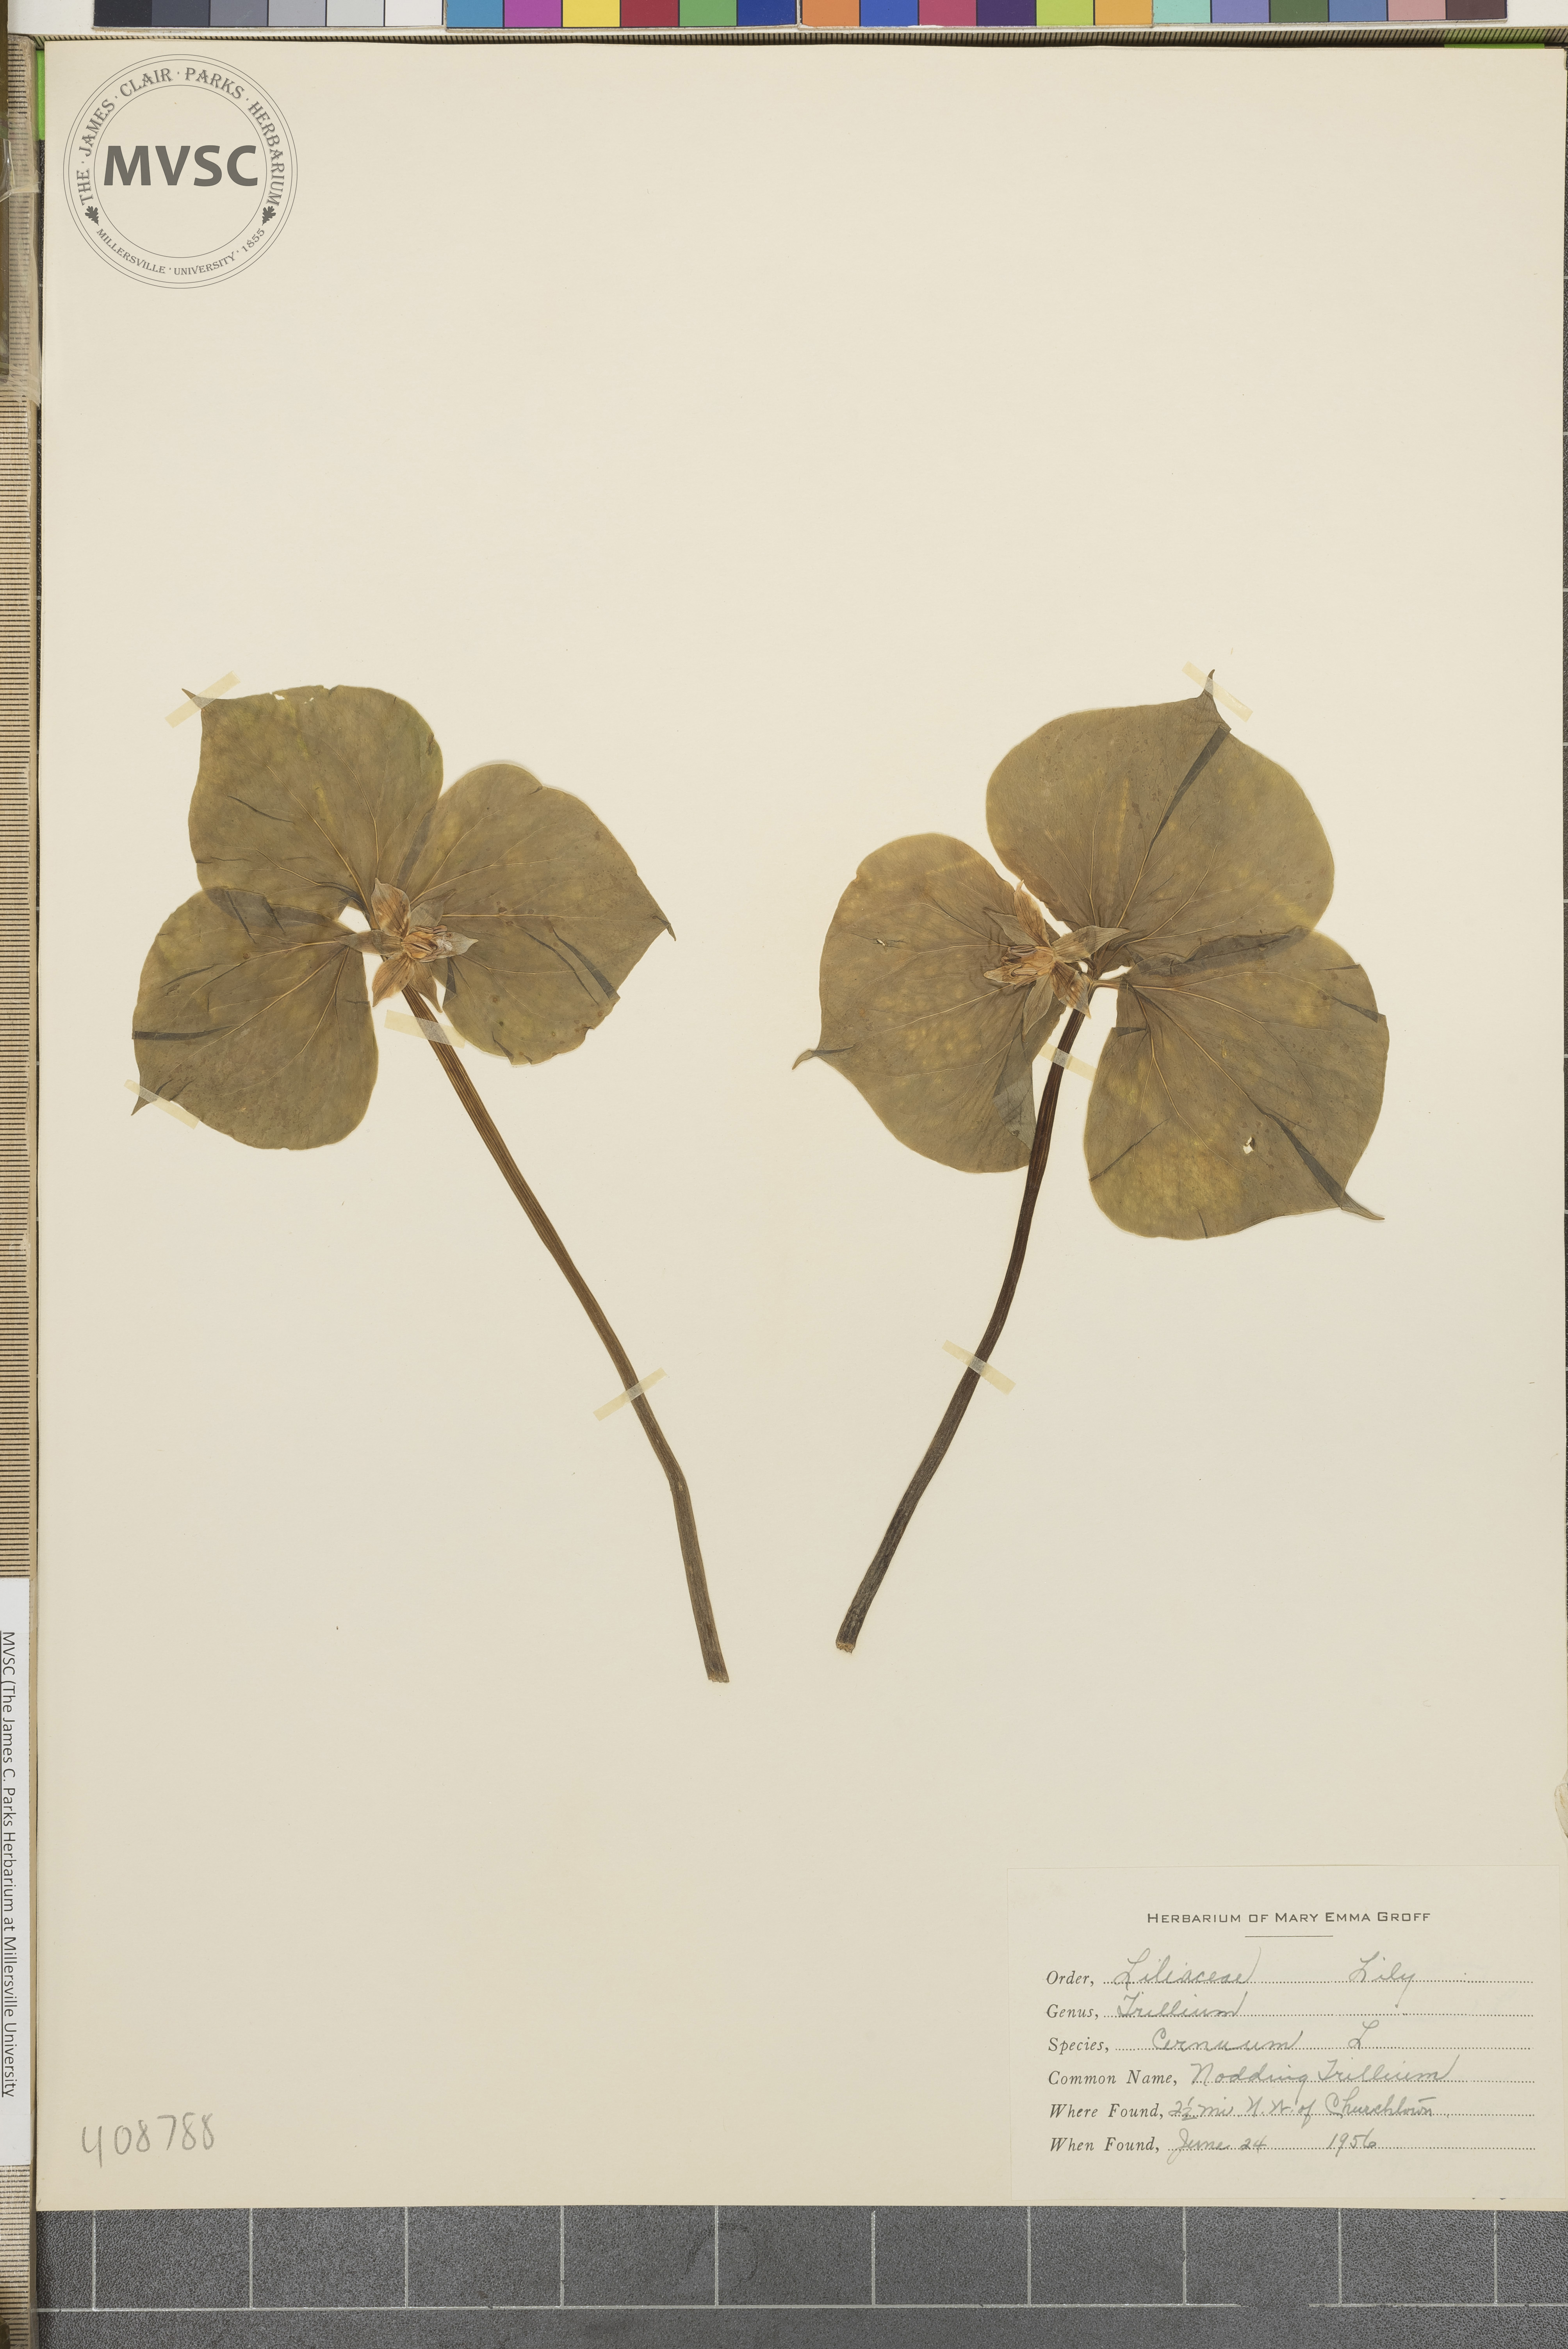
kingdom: Plantae
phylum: Tracheophyta
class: Liliopsida
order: Liliales
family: Melanthiaceae
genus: Trillium
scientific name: Trillium cernuum
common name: Nodding Trillium
